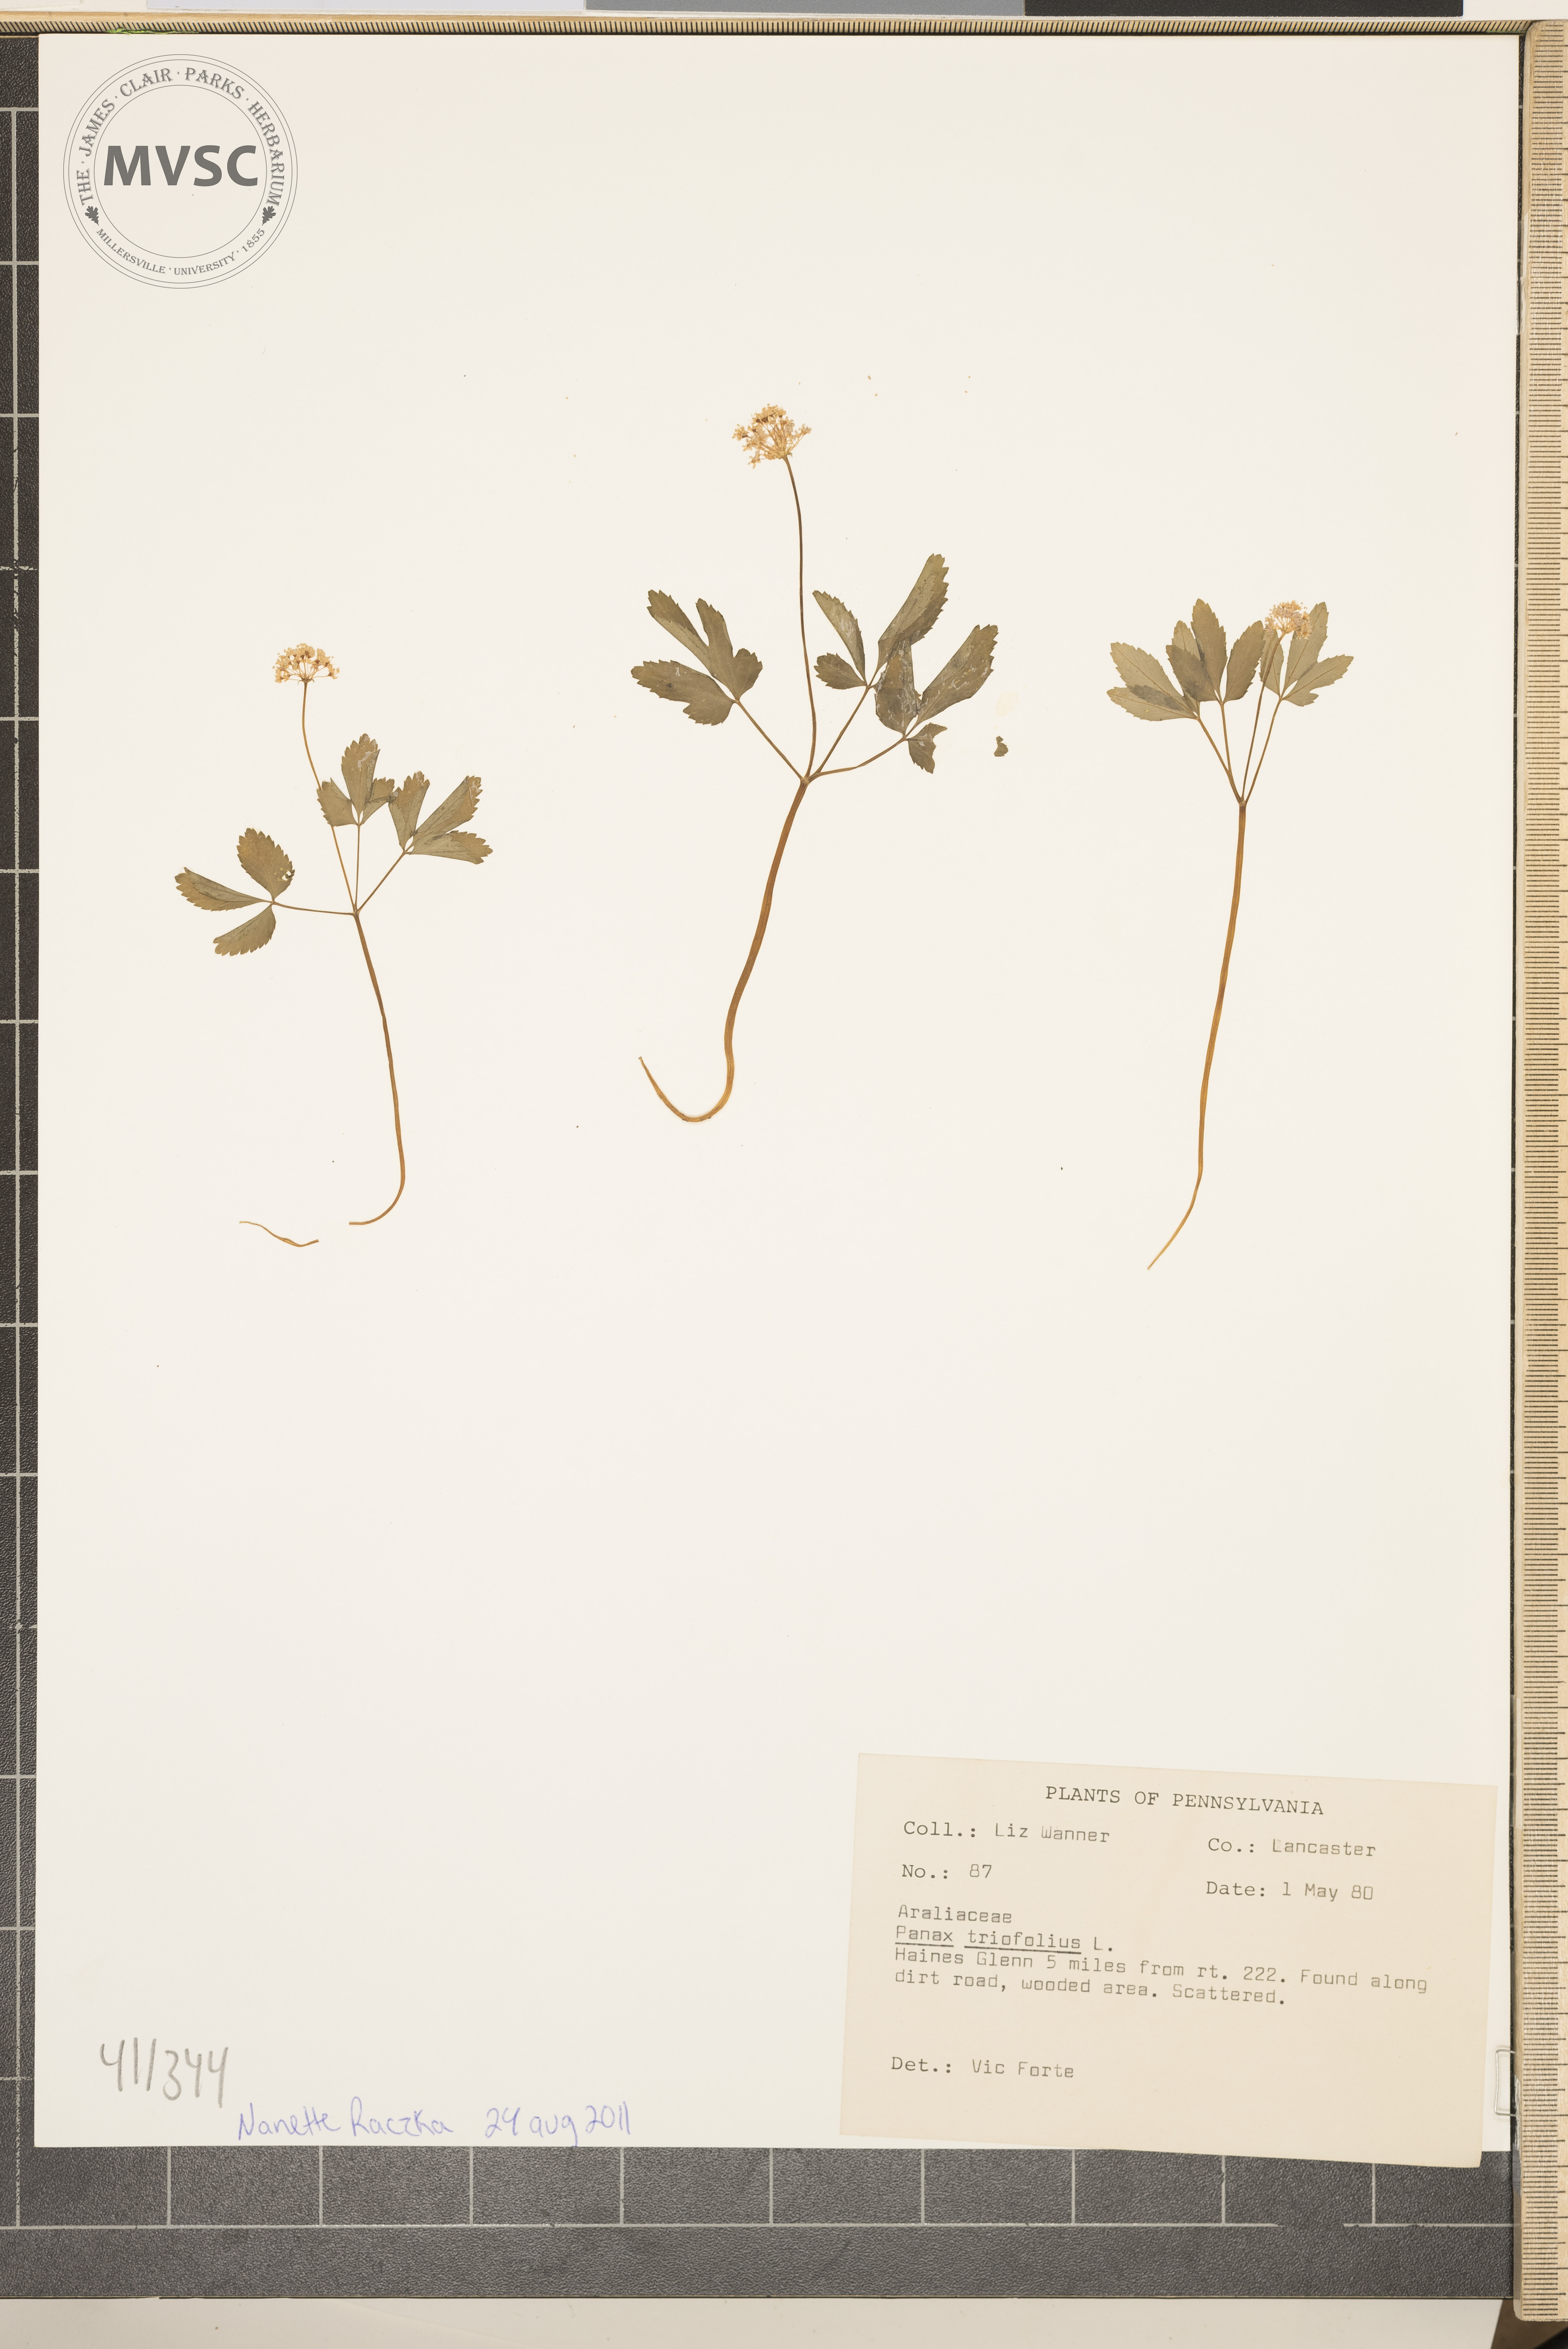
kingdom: Plantae
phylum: Tracheophyta
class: Magnoliopsida
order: Apiales
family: Araliaceae
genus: Panax
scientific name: Panax trifolius
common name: Dwarf ginseng
